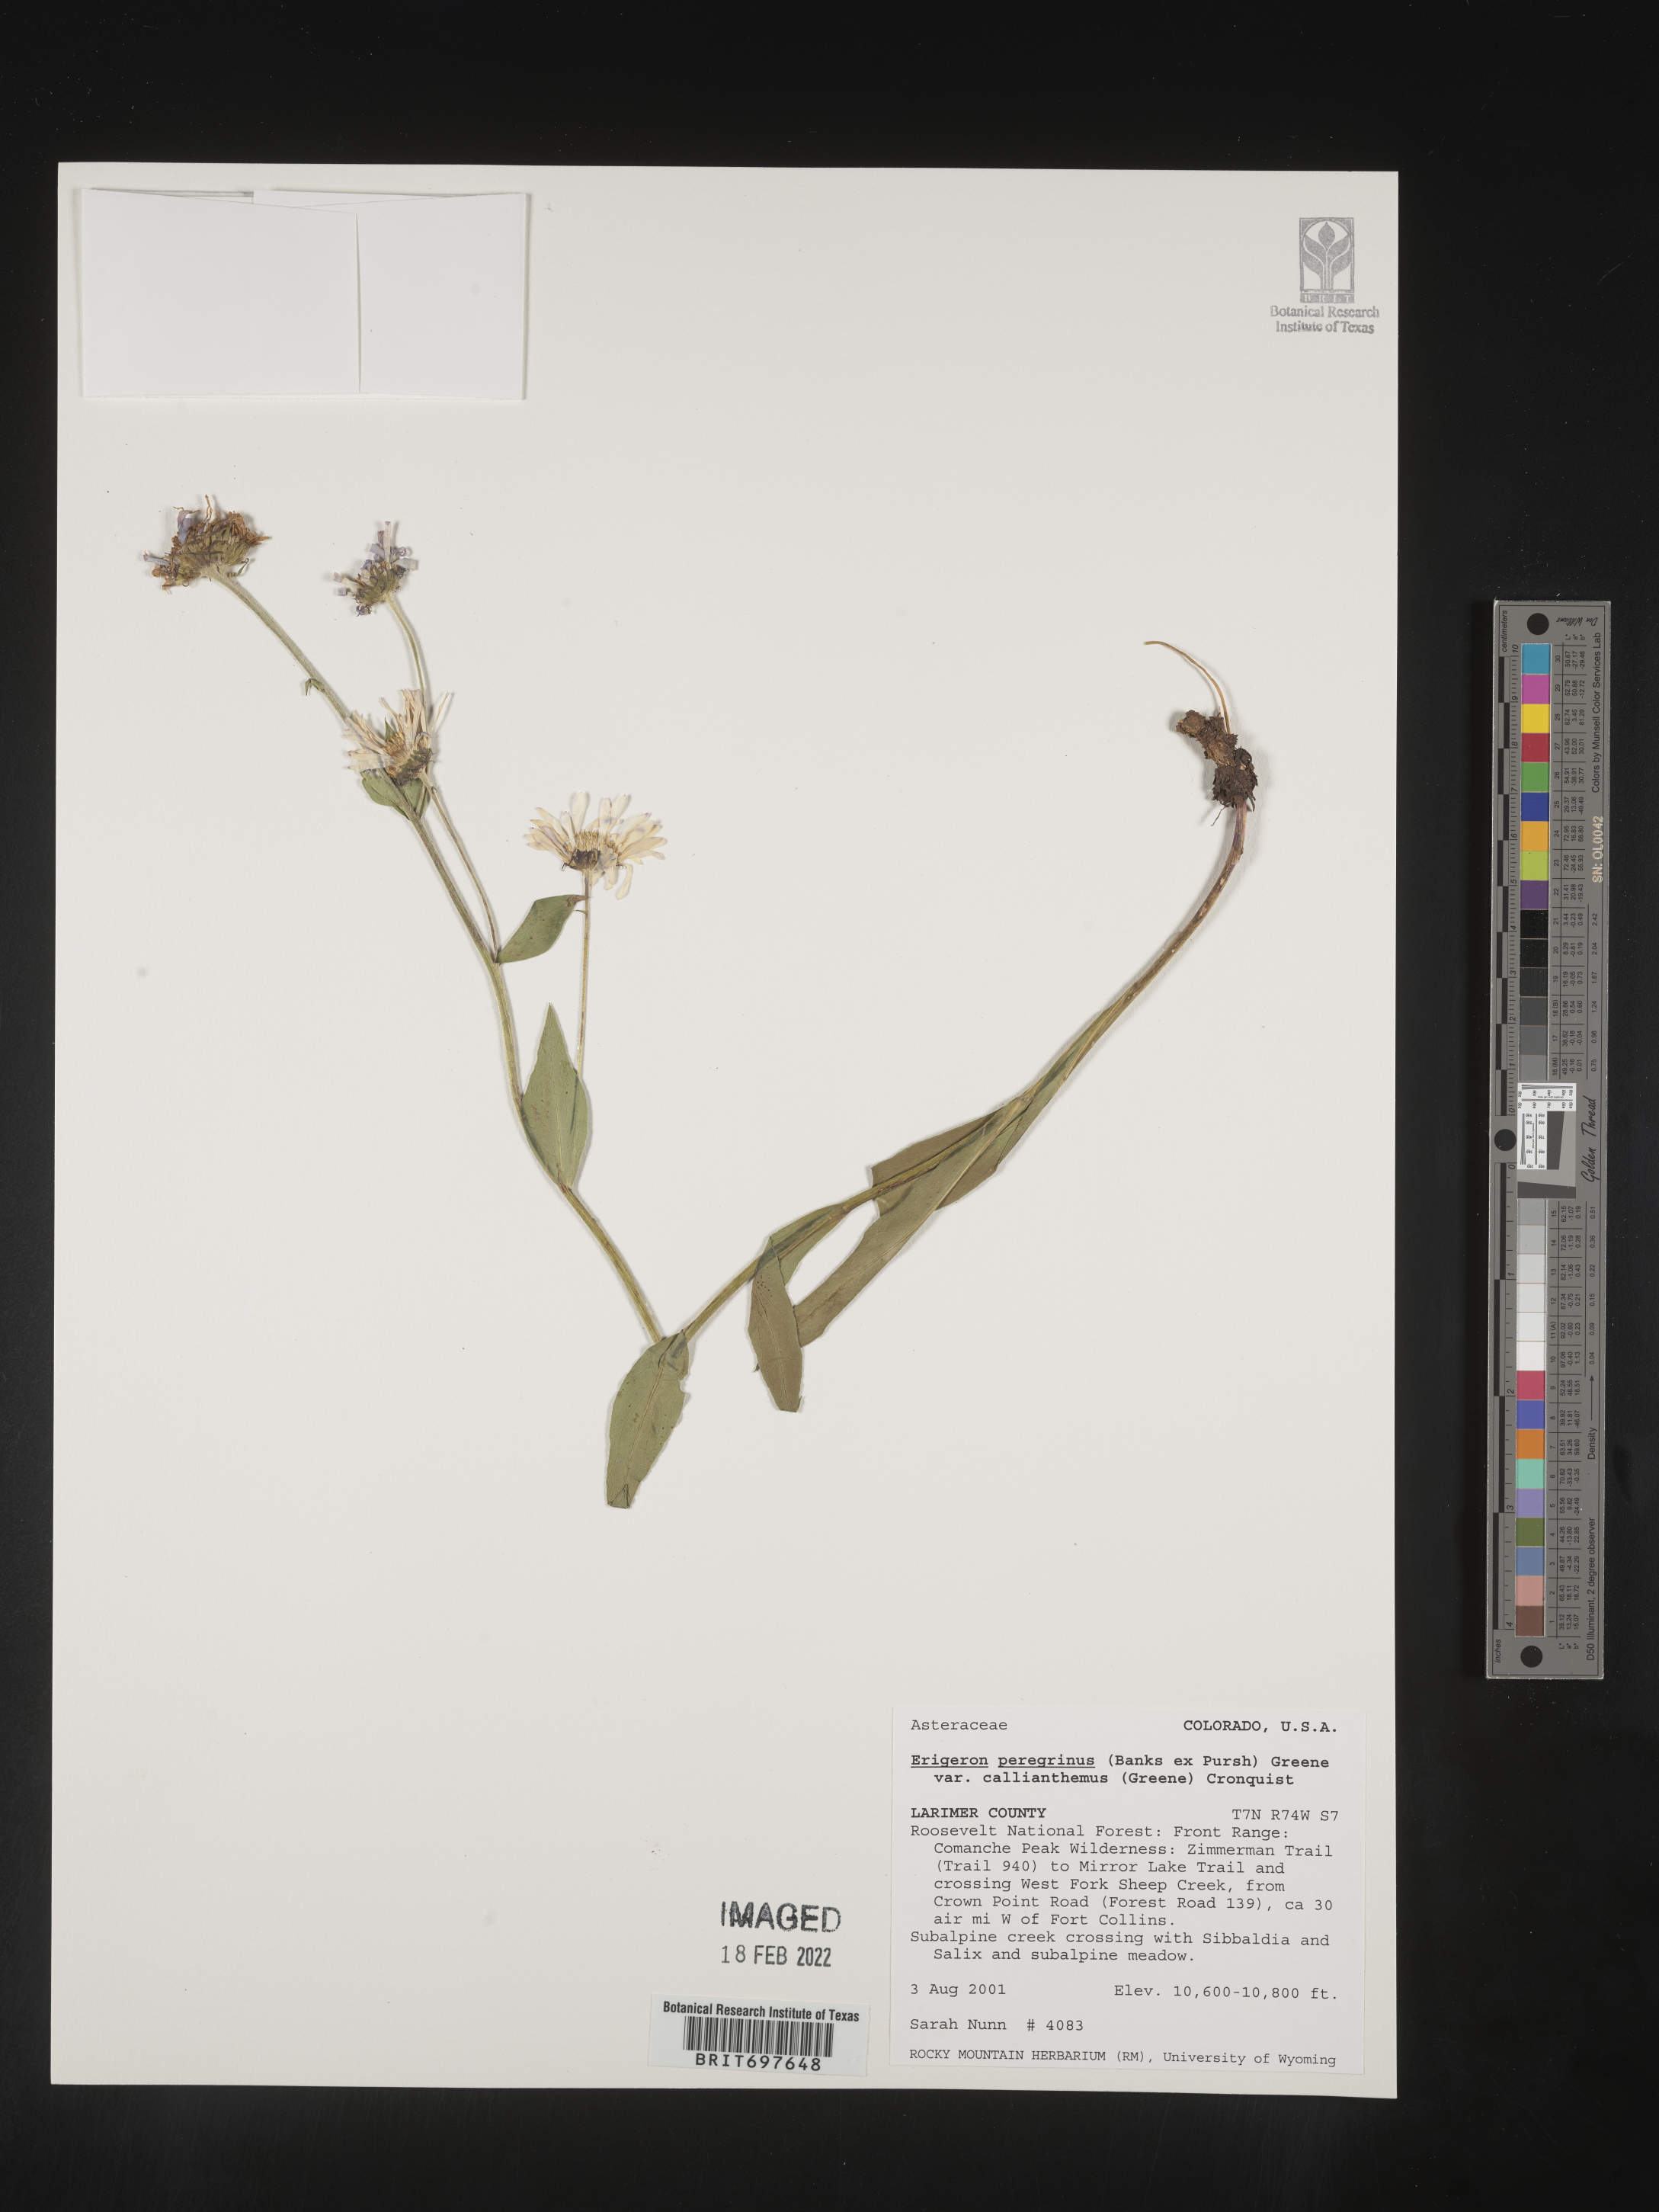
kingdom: Plantae
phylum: Tracheophyta
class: Magnoliopsida
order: Asterales
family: Asteraceae
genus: Erigeron
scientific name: Erigeron peregrinus
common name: Peregrine fleabane
